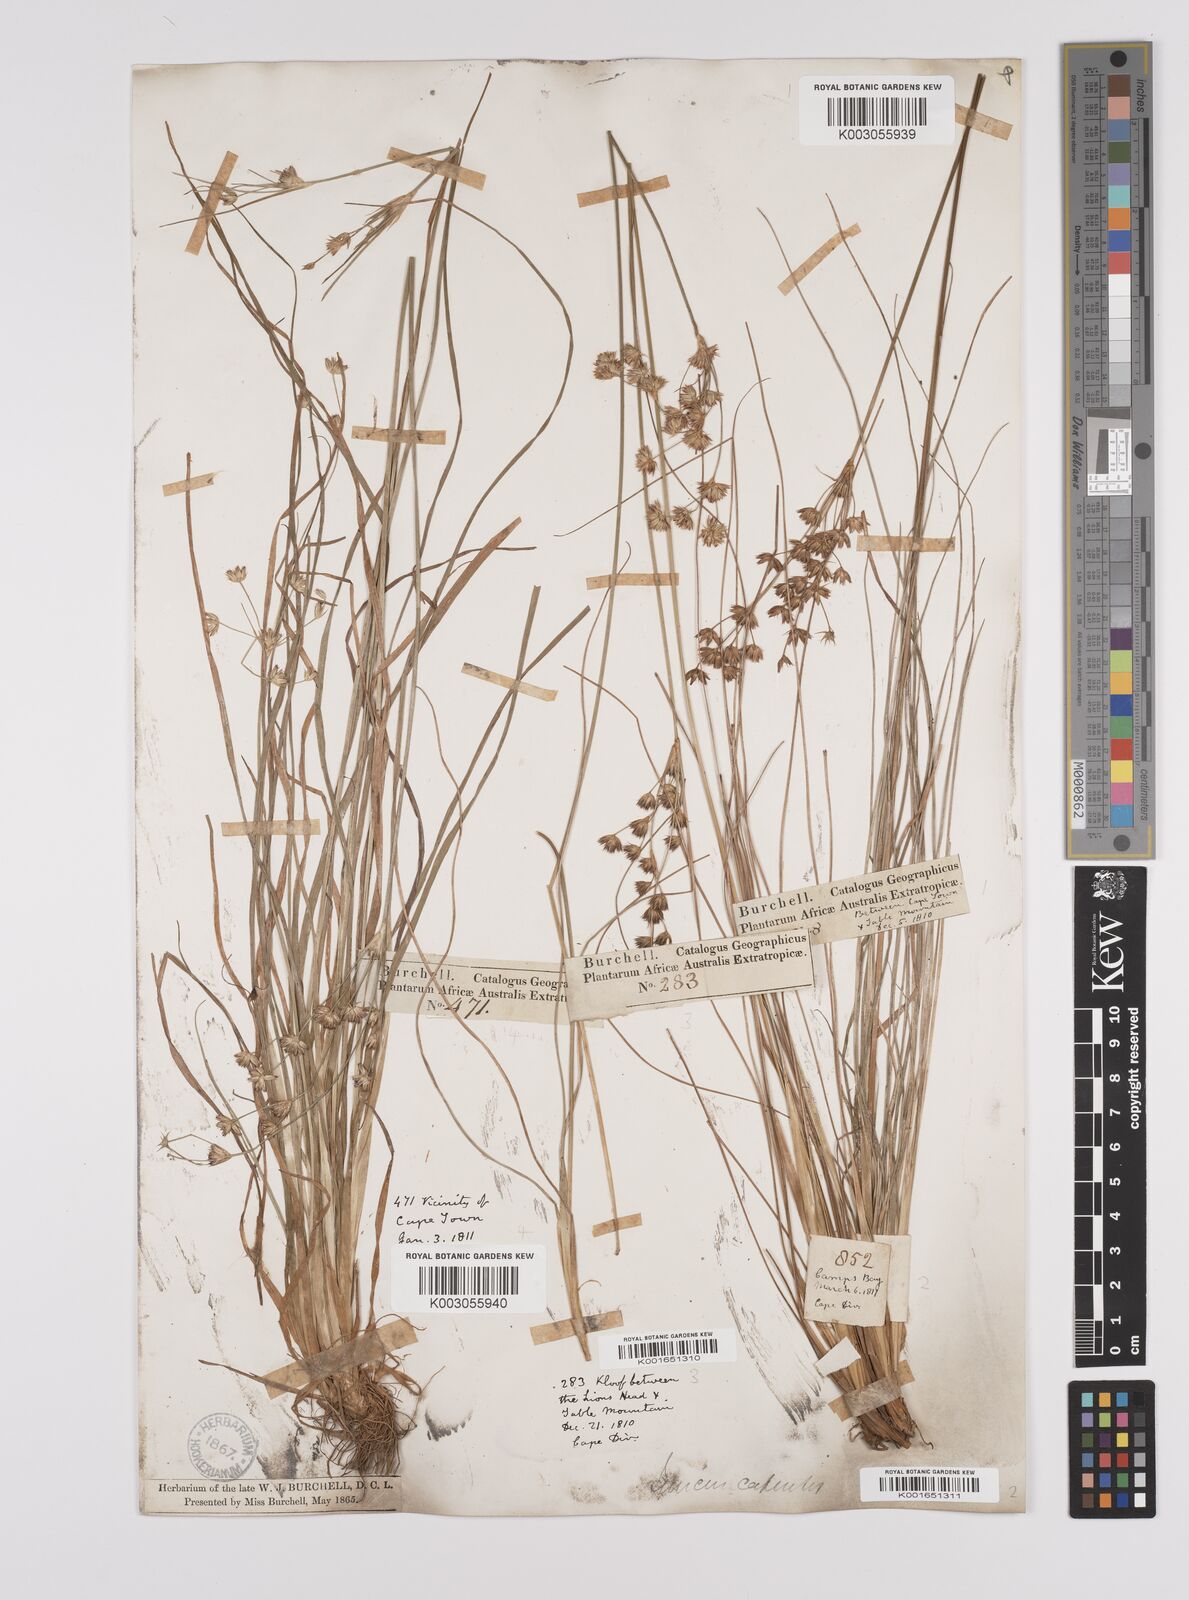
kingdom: Plantae
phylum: Tracheophyta
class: Liliopsida
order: Poales
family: Juncaceae
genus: Juncus
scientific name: Juncus capensis
